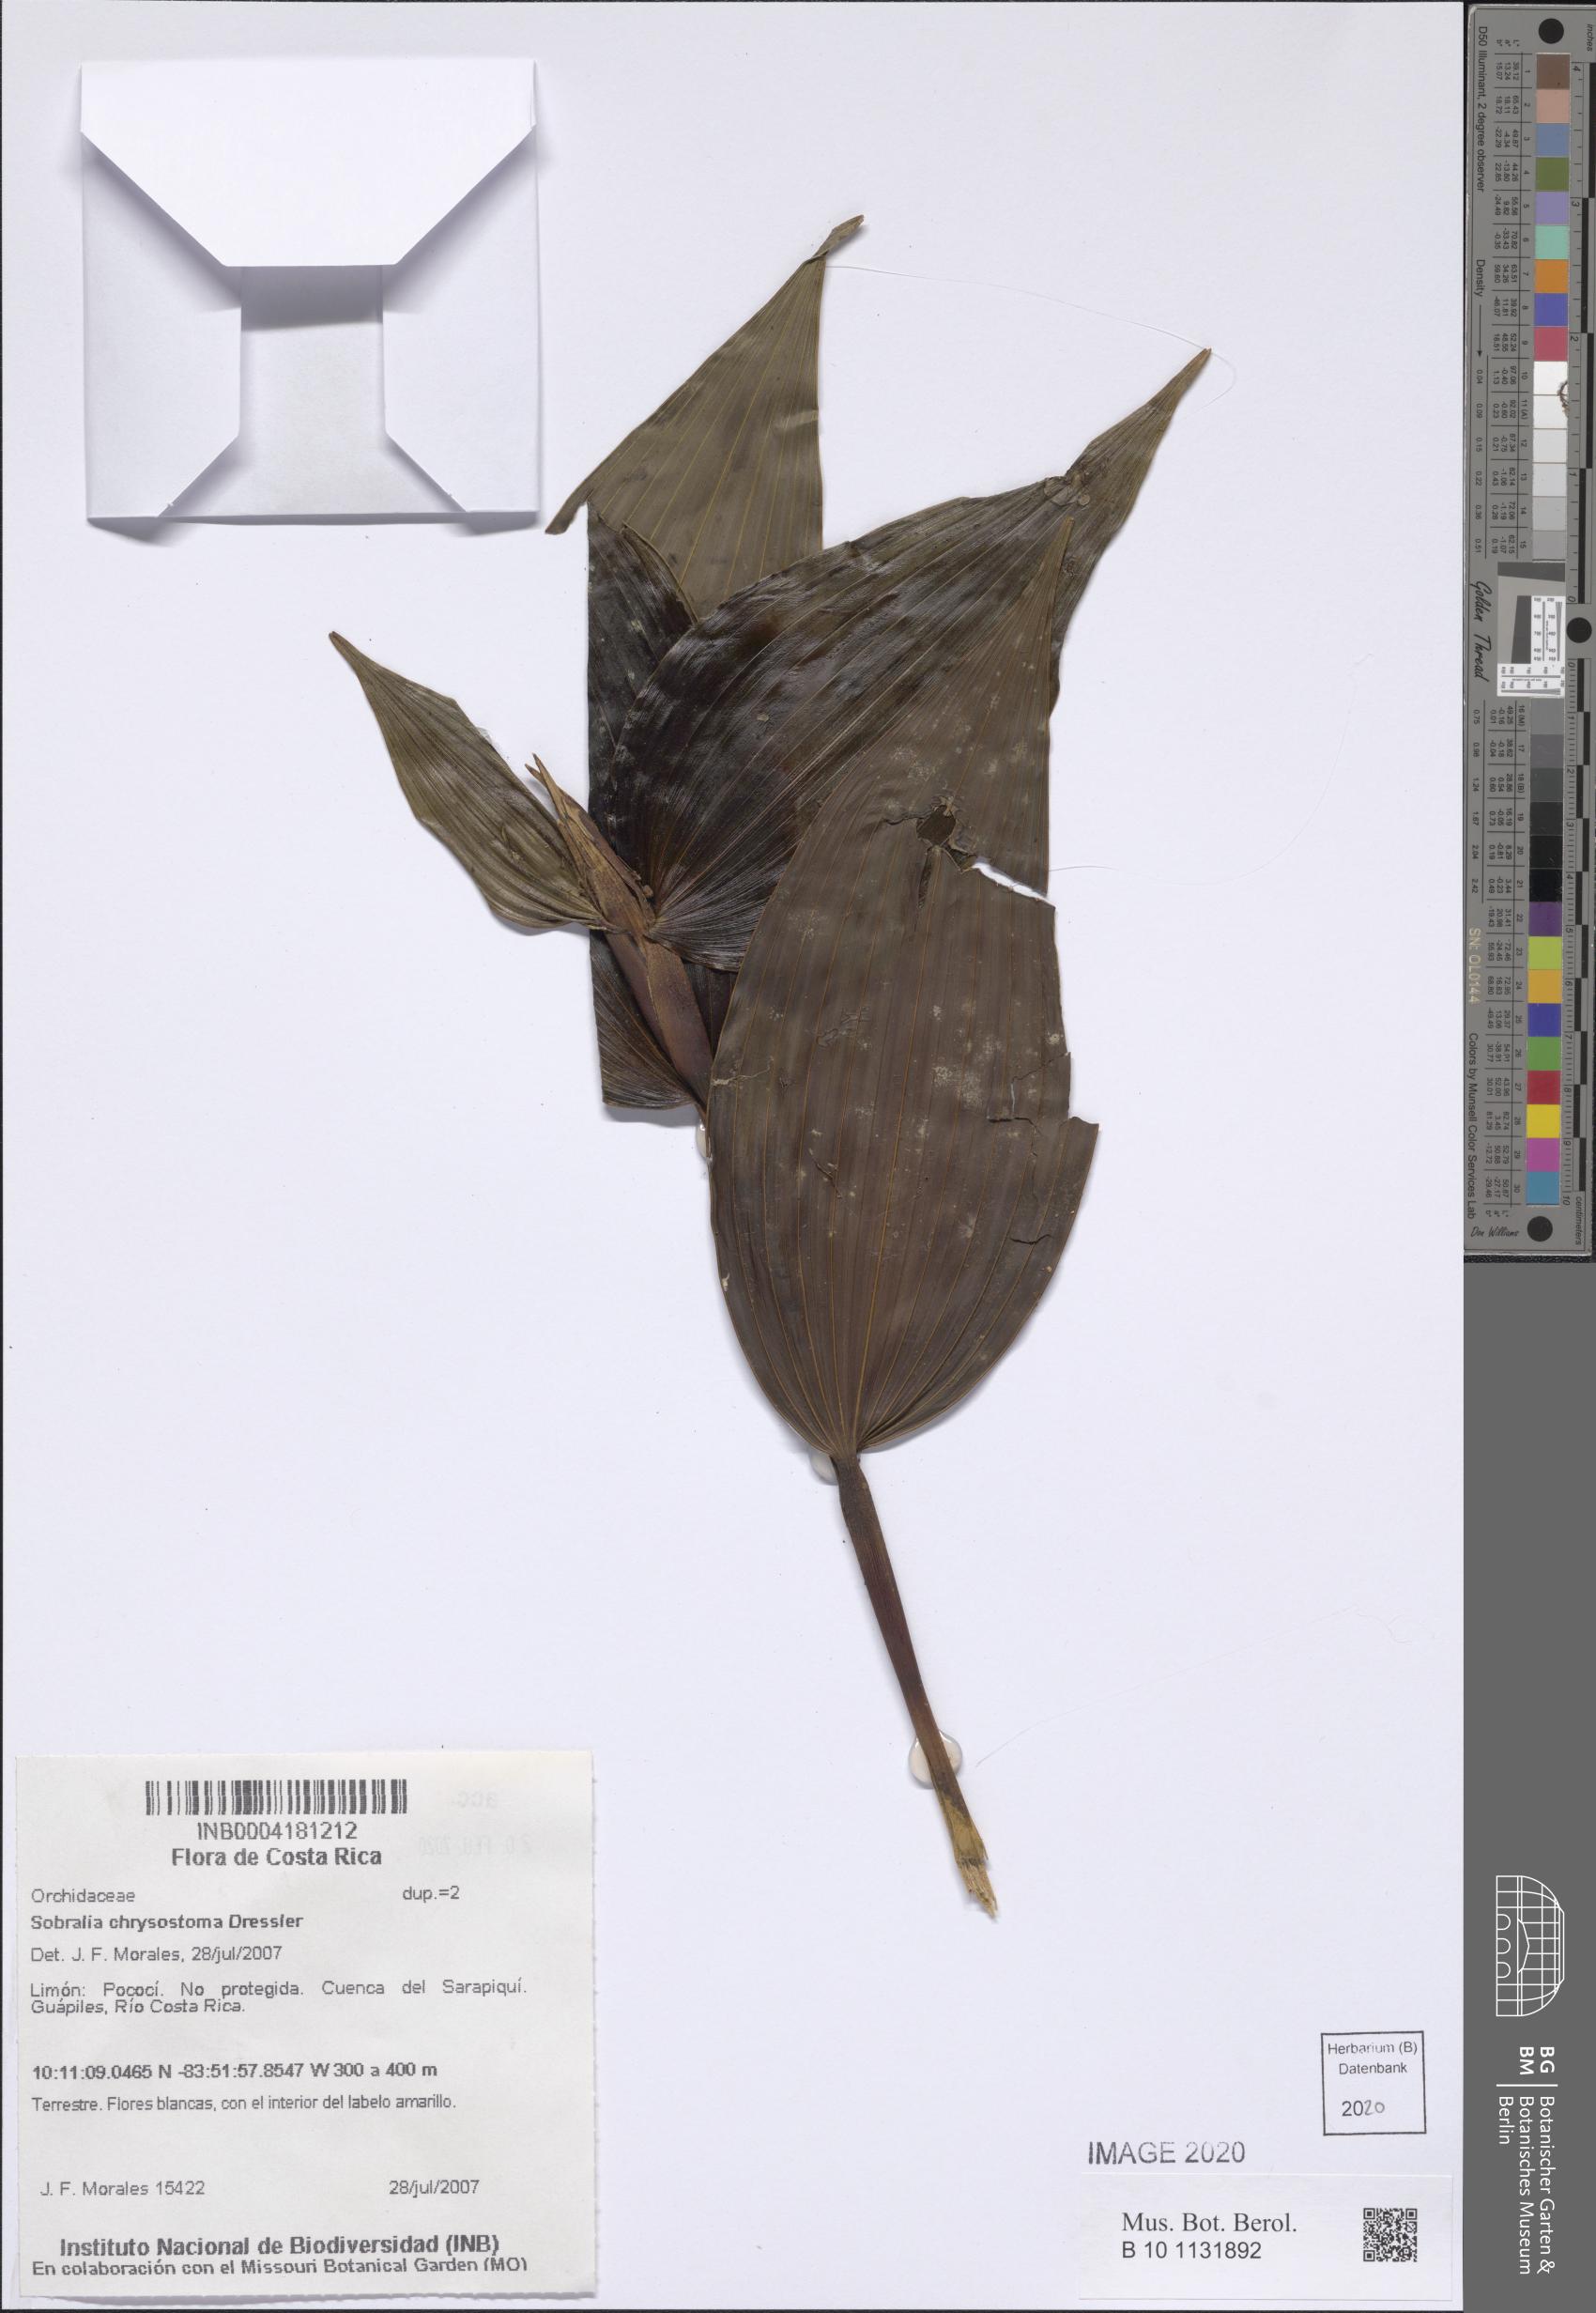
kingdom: Plantae
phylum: Tracheophyta
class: Liliopsida
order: Asparagales
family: Orchidaceae
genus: Sobralia
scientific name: Sobralia chrysostoma
